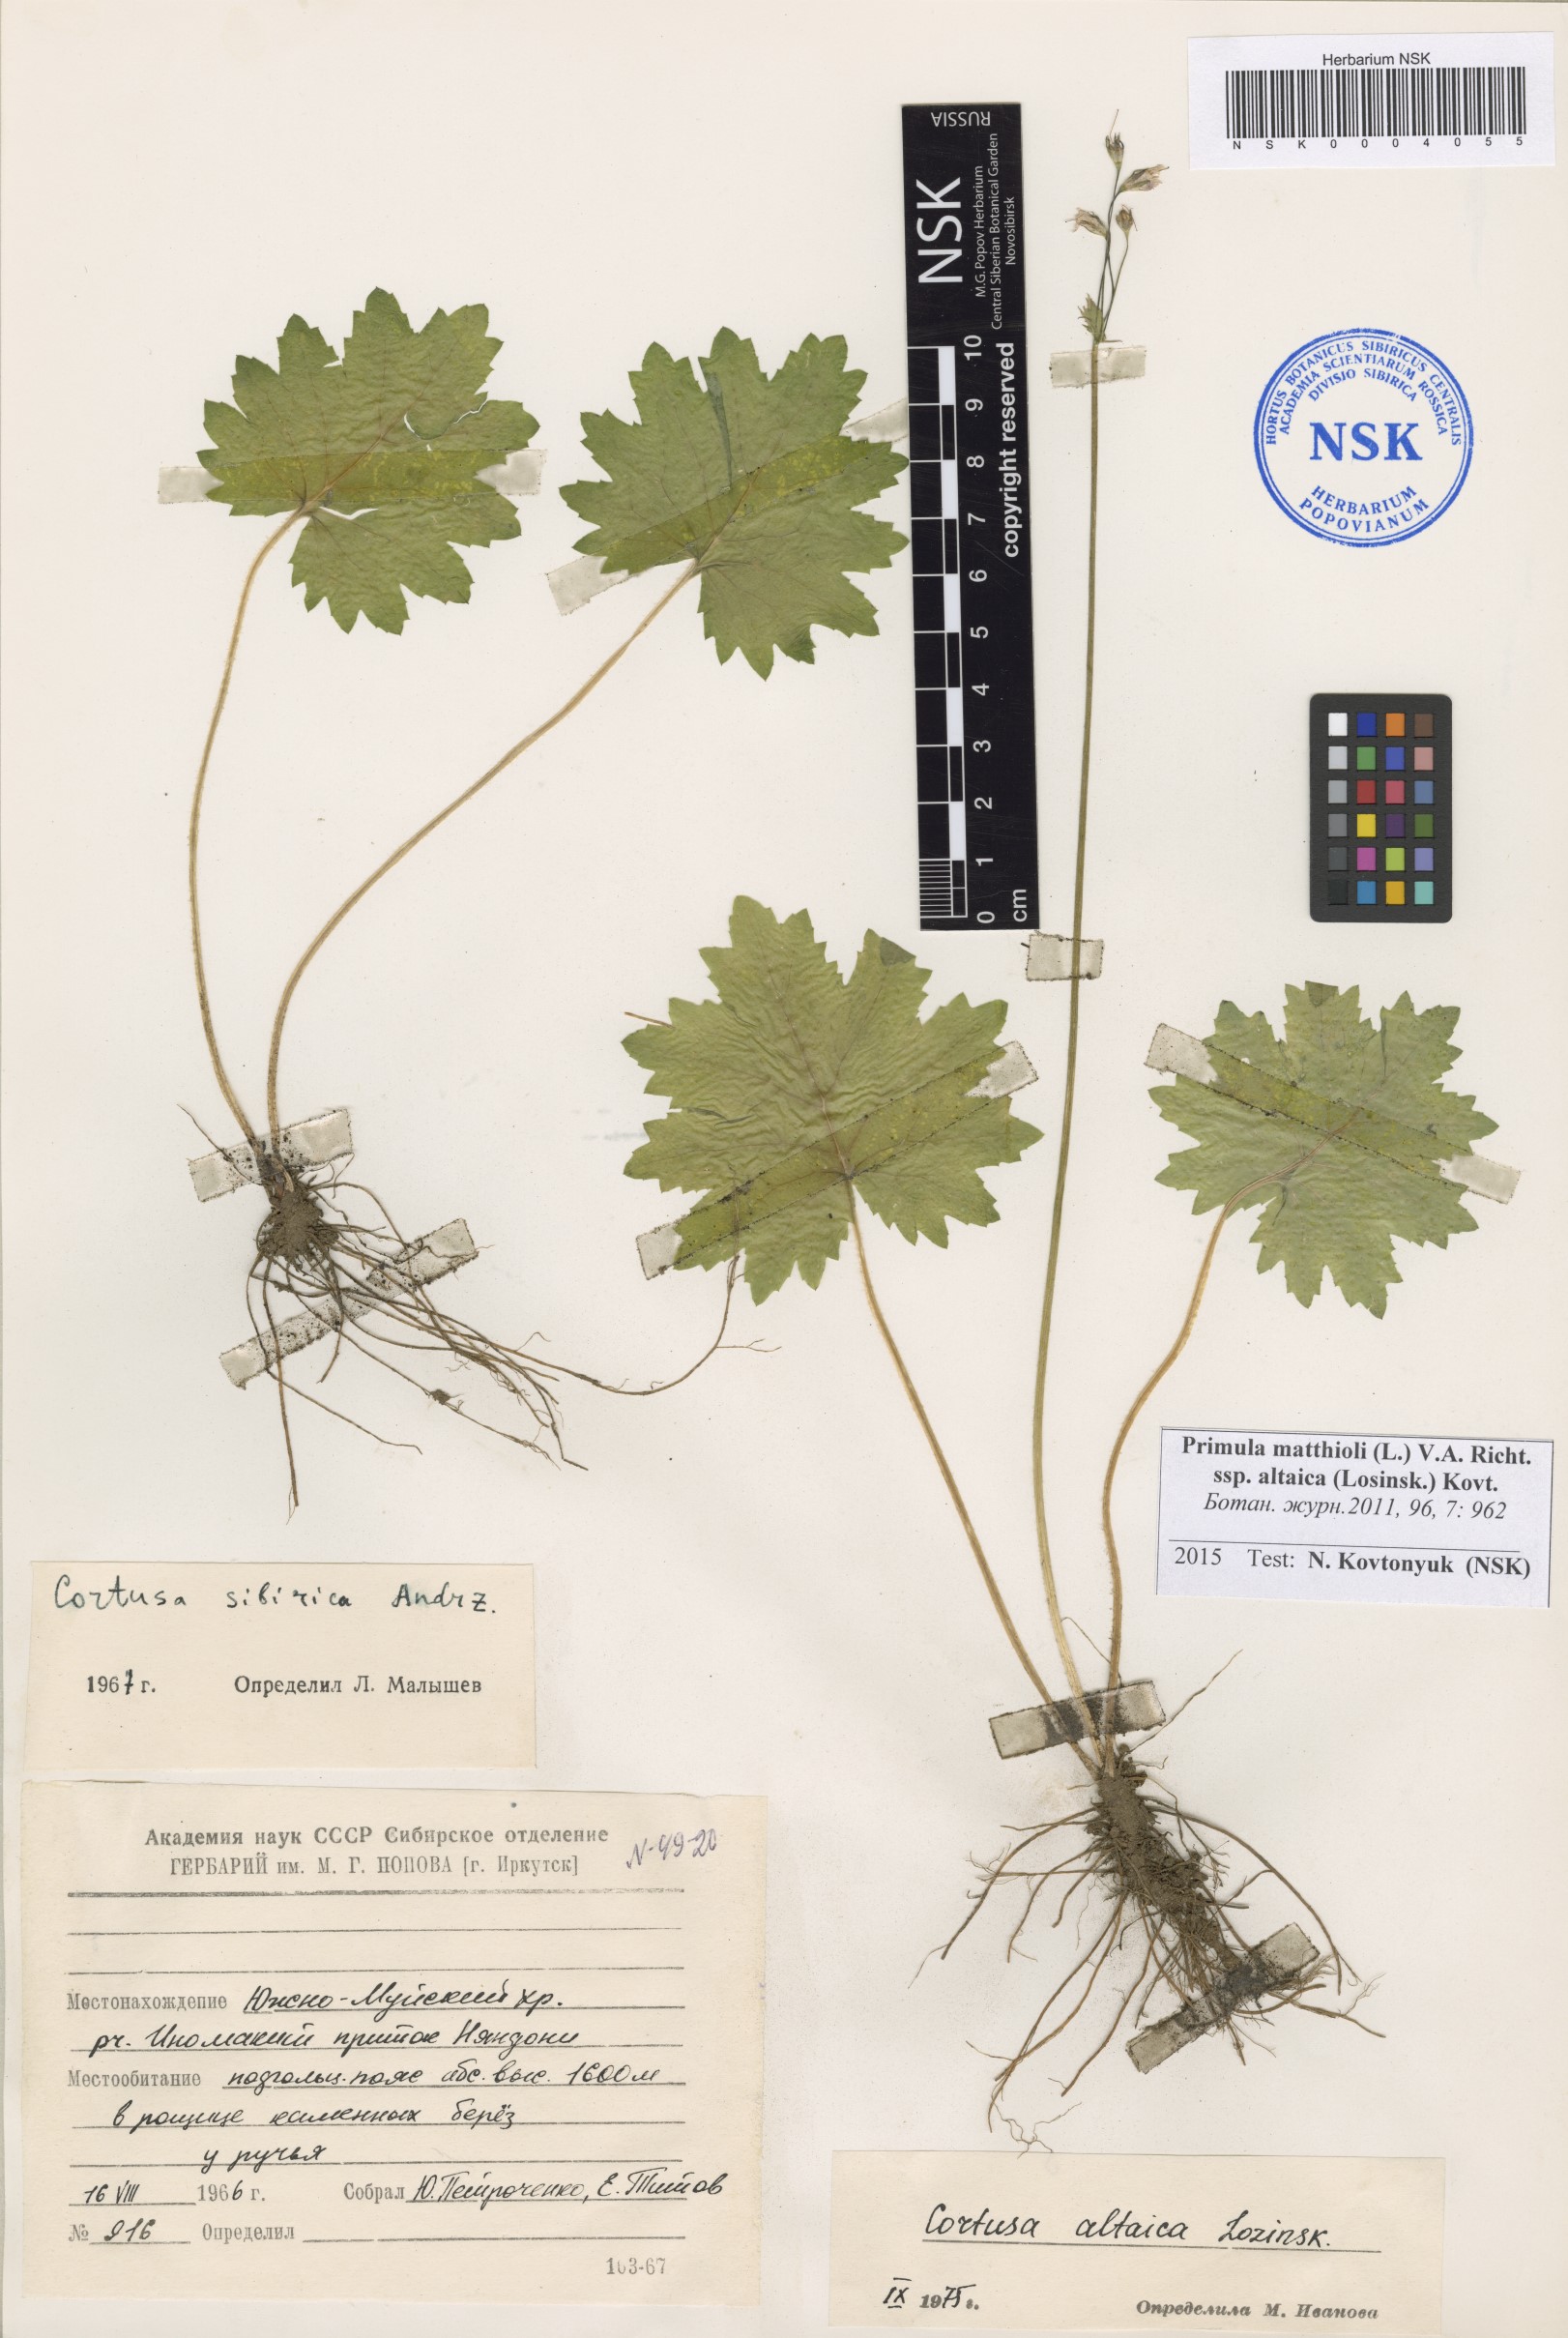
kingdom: Plantae
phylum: Tracheophyta
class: Magnoliopsida
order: Ericales
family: Primulaceae
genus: Primula
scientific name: Primula matthioli
